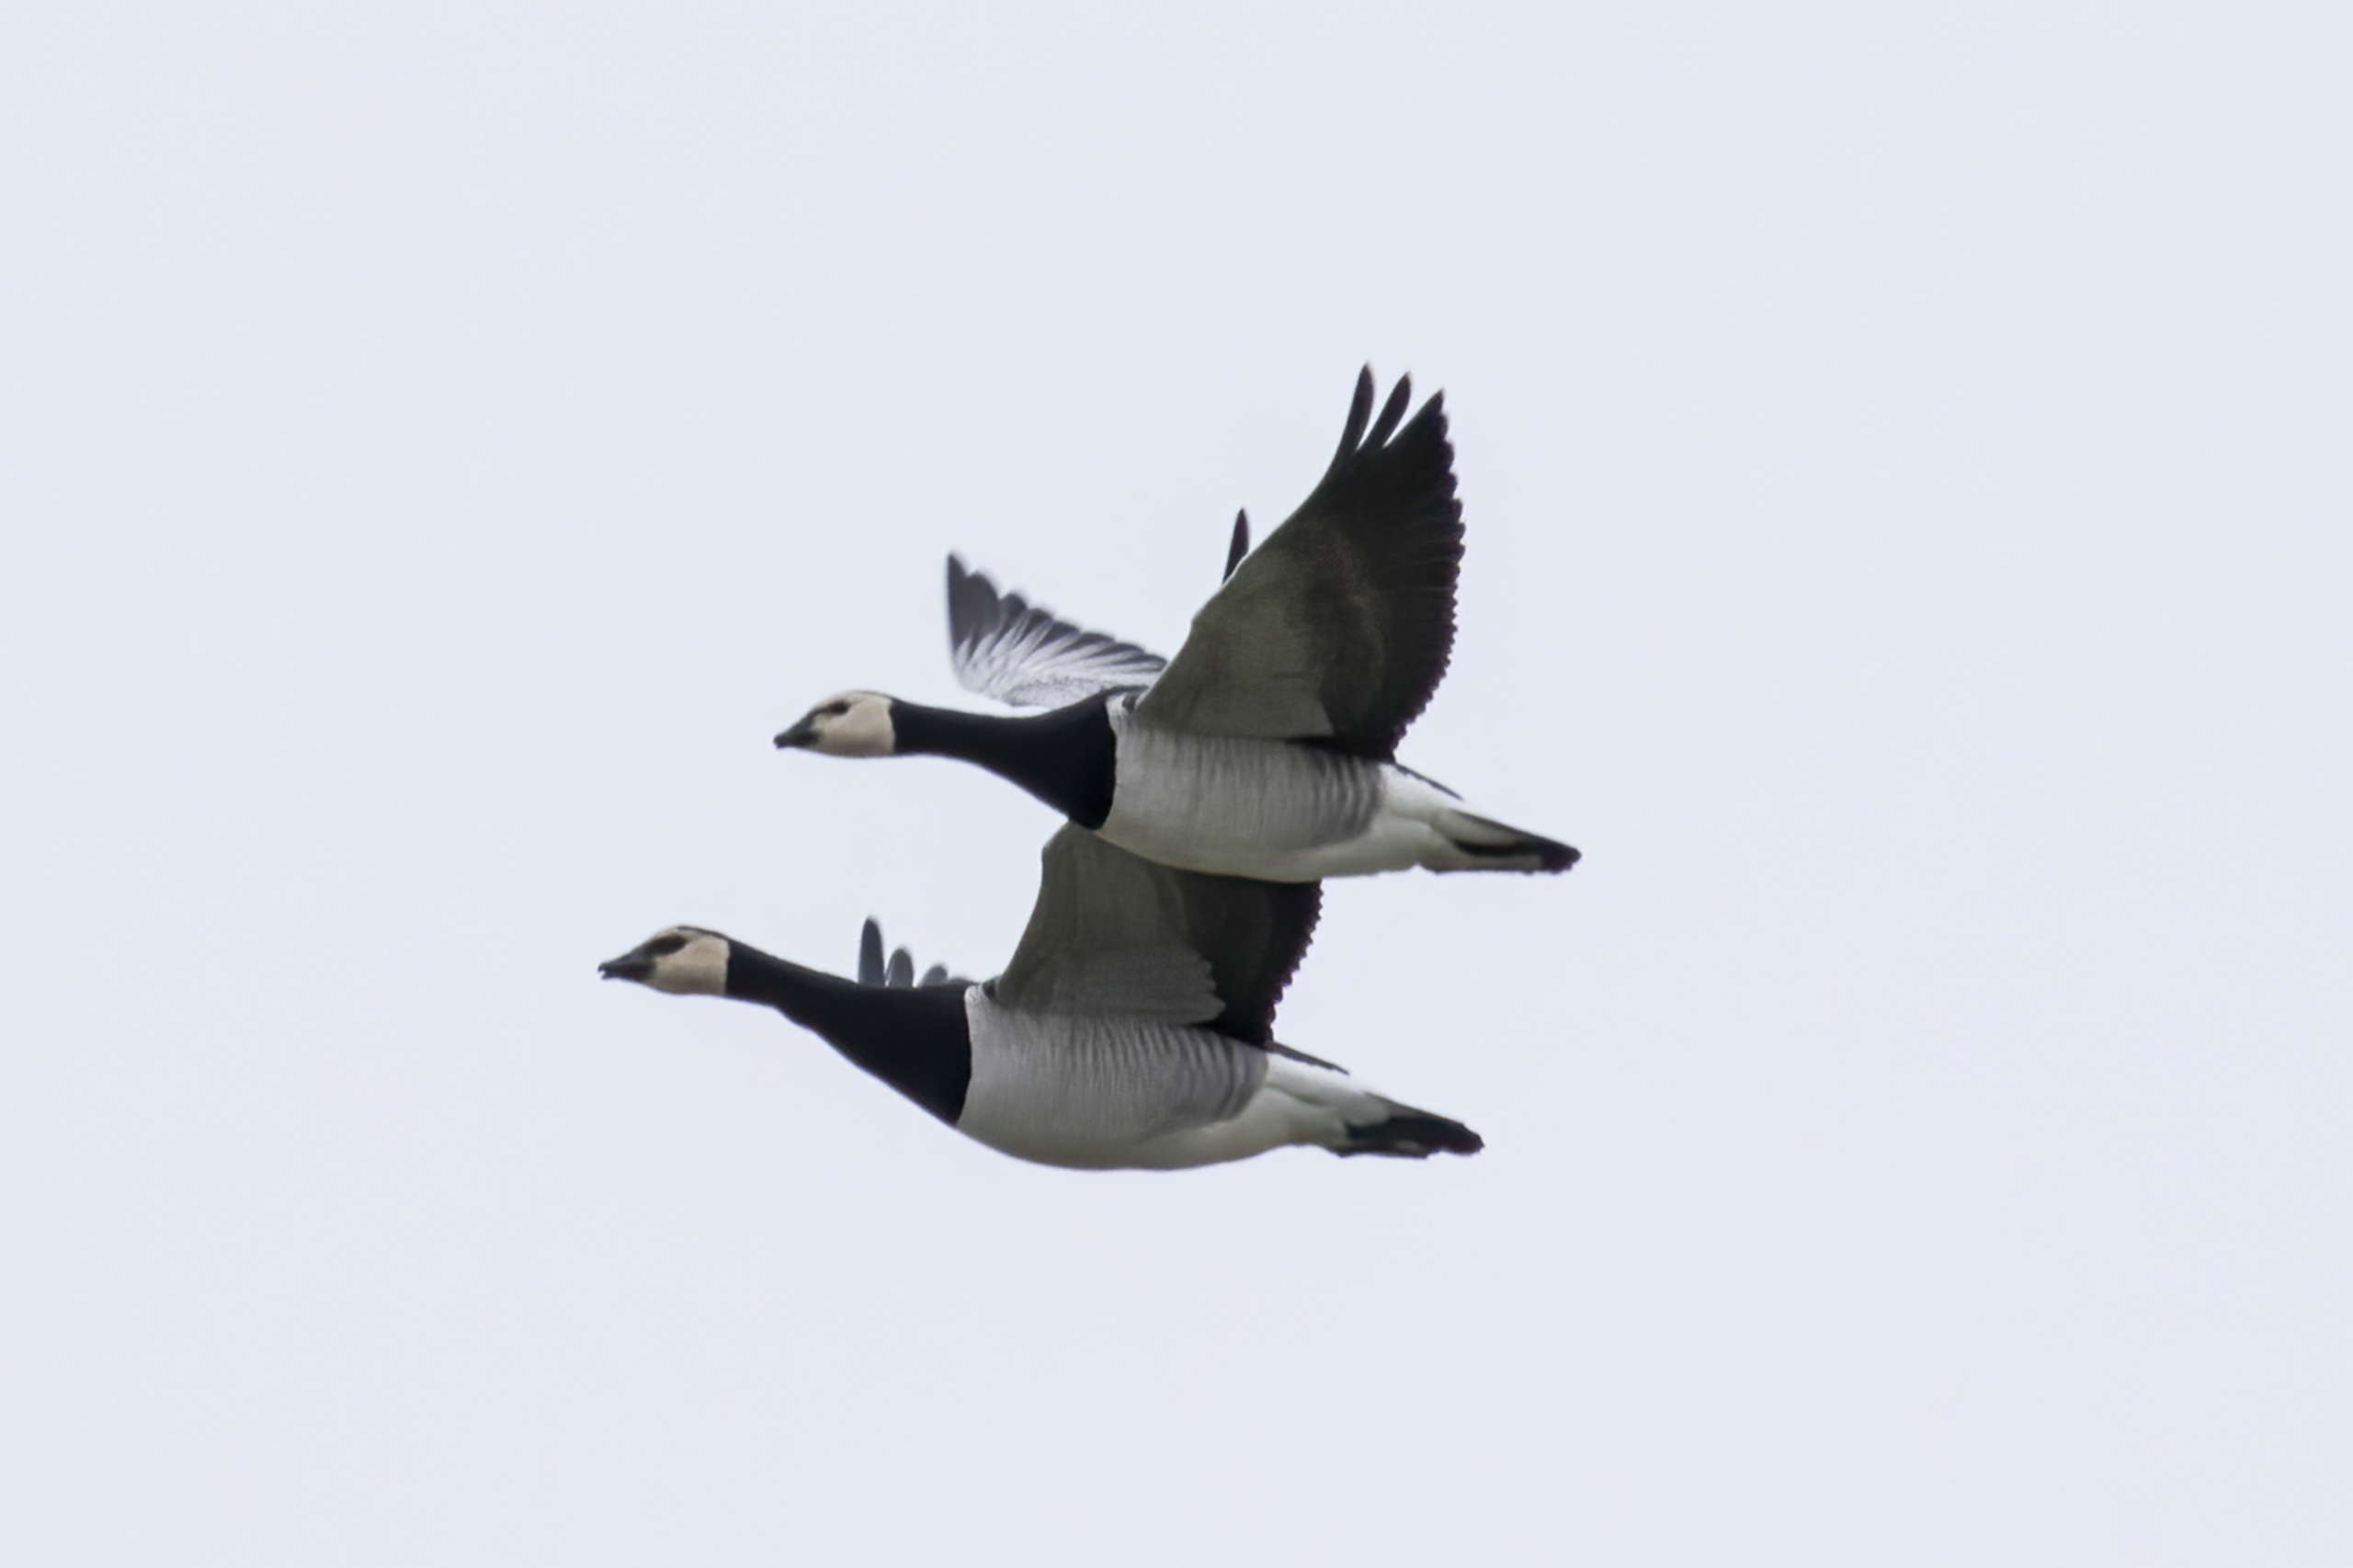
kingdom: Animalia
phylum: Chordata
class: Aves
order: Anseriformes
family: Anatidae
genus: Branta
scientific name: Branta leucopsis
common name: Bramgås
